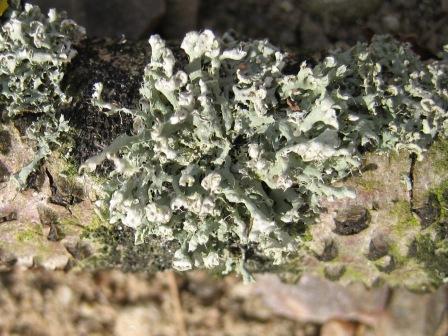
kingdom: Fungi
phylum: Ascomycota
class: Lecanoromycetes
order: Caliciales
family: Physciaceae
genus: Physcia
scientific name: Physcia adscendens
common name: hætte-rosetlav
